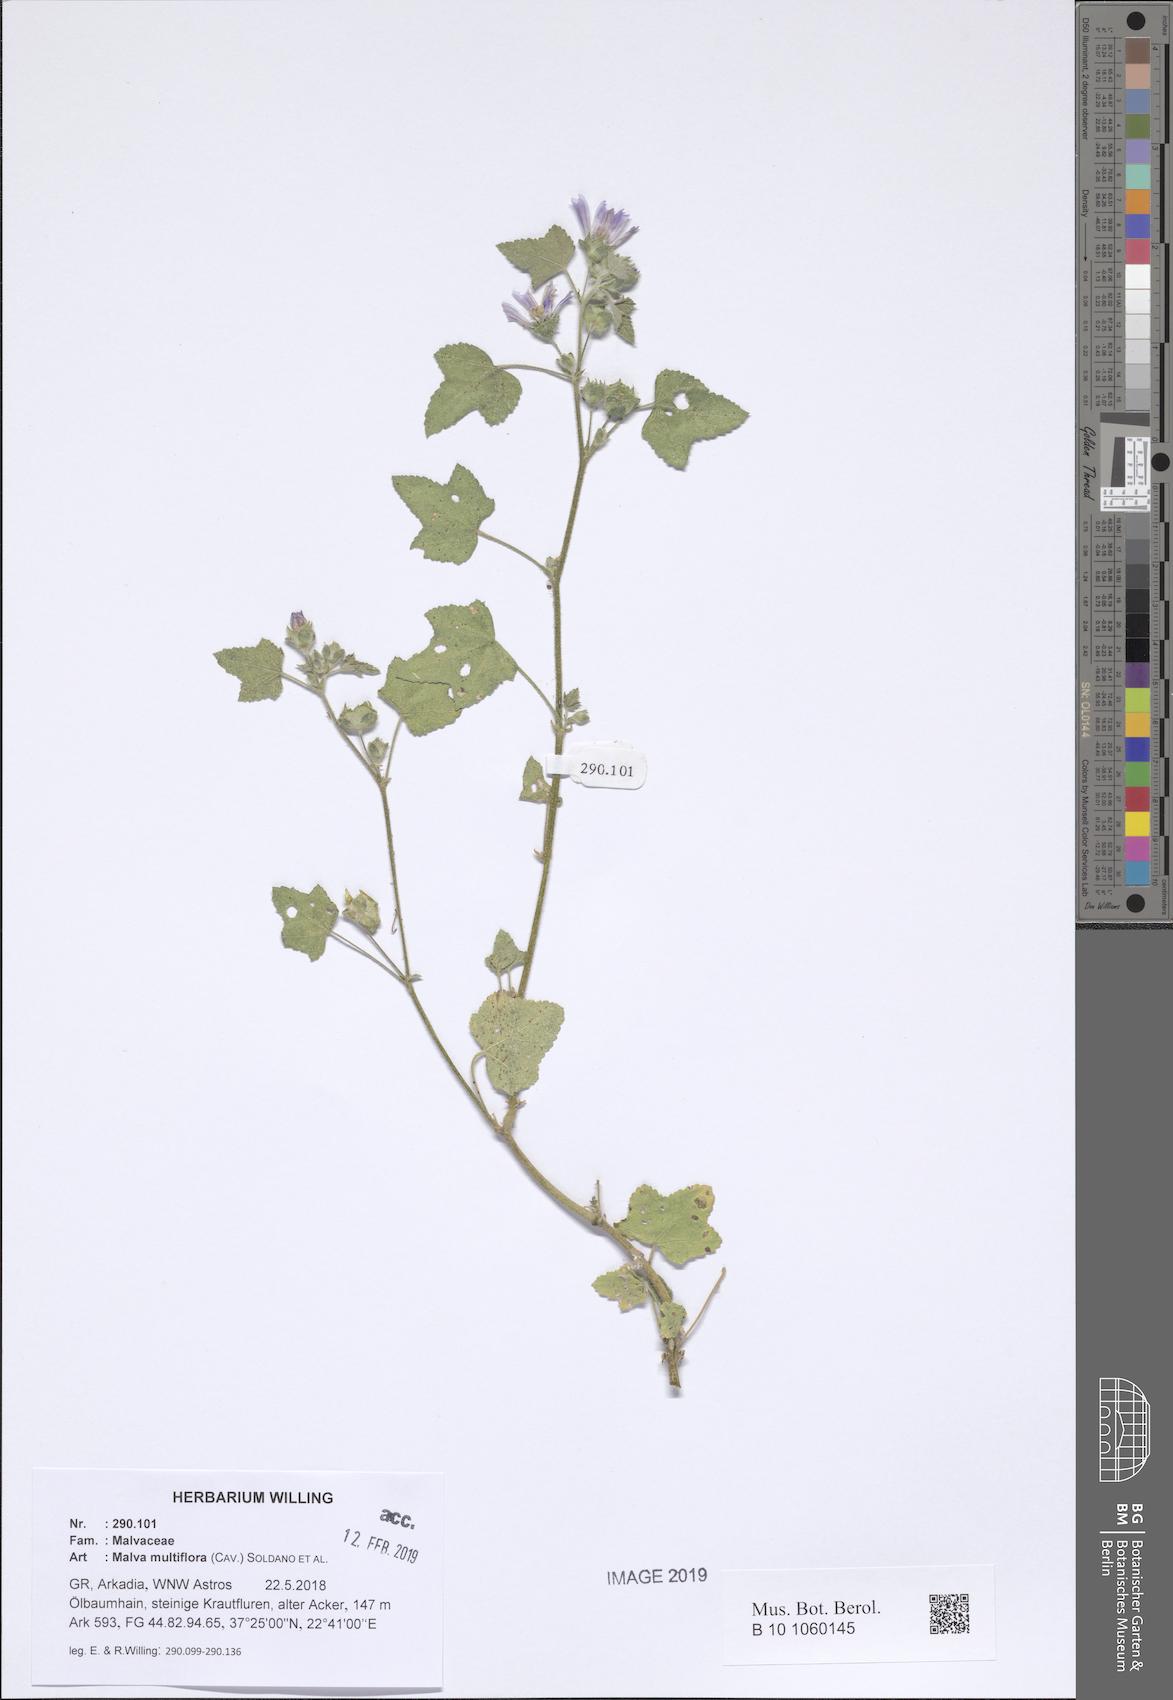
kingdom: Plantae
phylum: Tracheophyta
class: Magnoliopsida
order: Malvales
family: Malvaceae
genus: Malva
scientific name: Malva multiflora
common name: Cheeseweed
